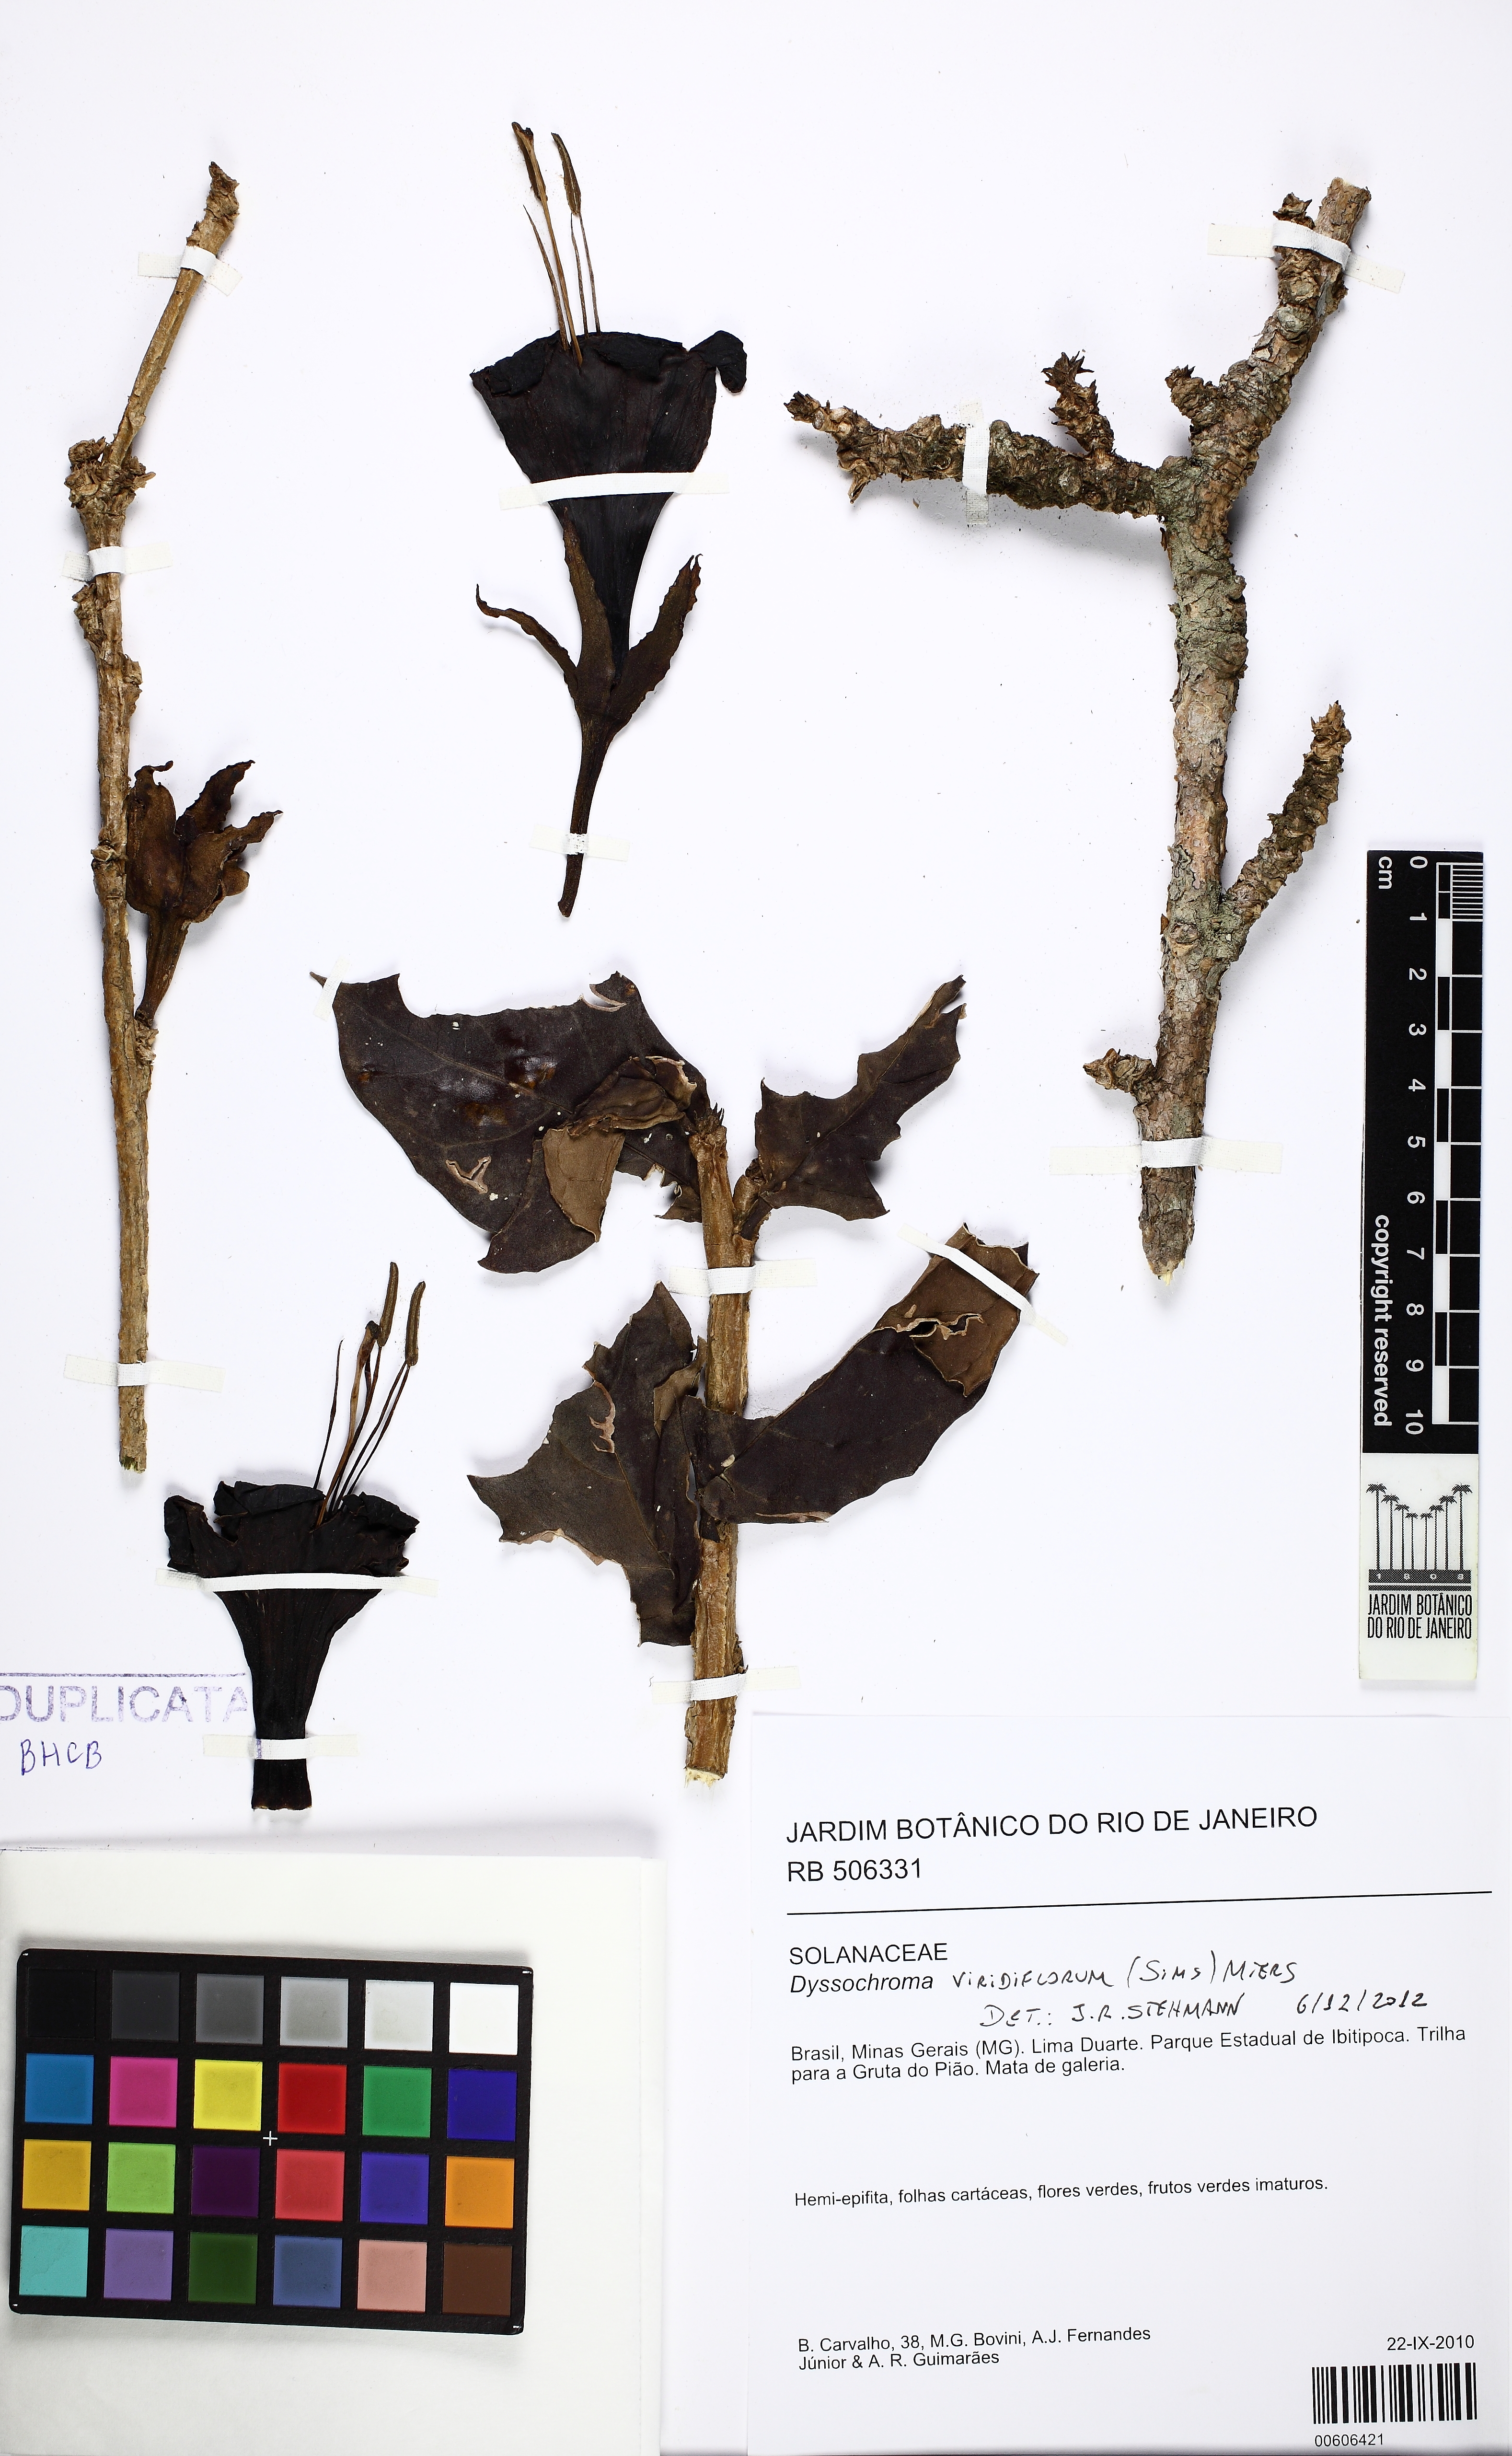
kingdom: Plantae
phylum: Tracheophyta
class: Magnoliopsida
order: Solanales
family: Solanaceae
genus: Dyssochroma
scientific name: Dyssochroma viridiflorum
